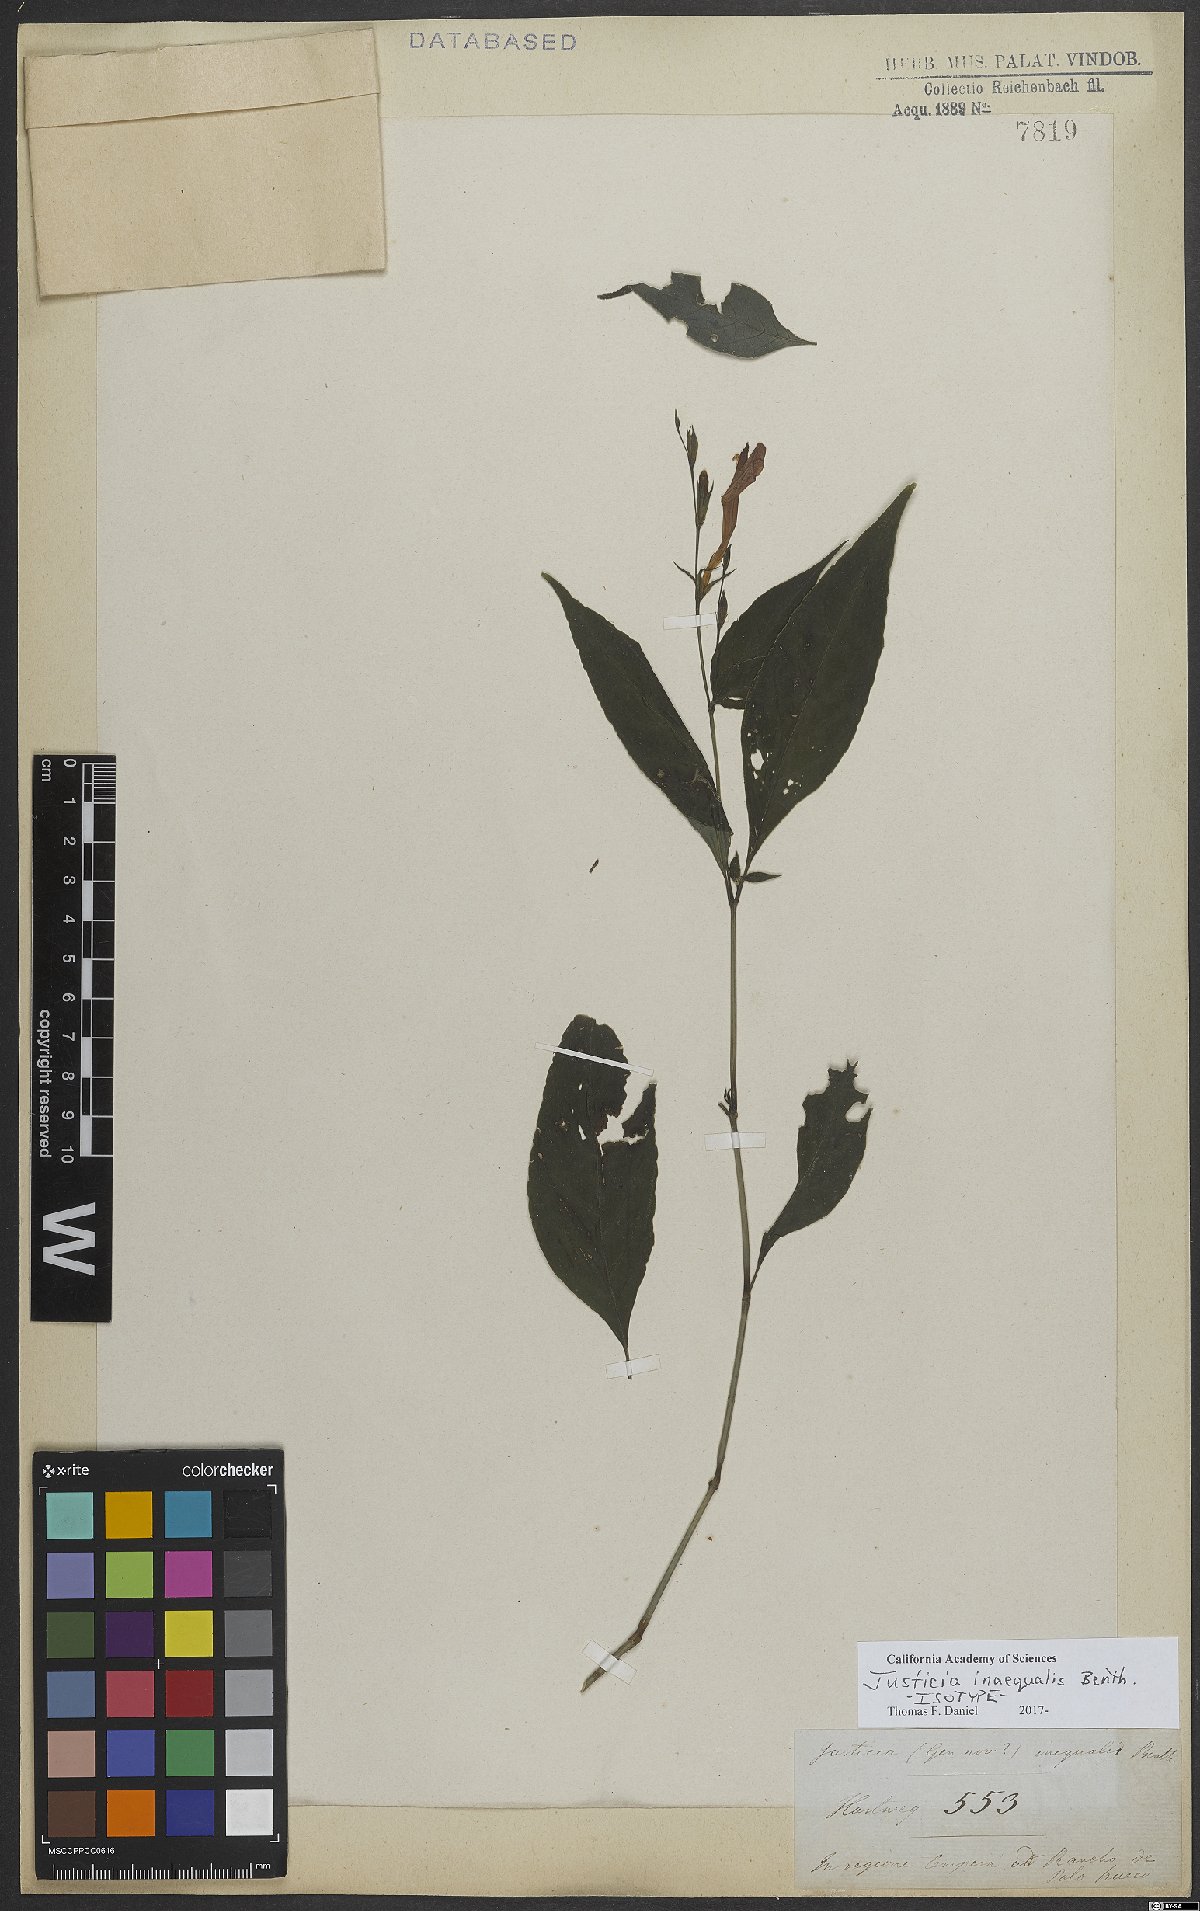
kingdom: Plantae
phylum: Tracheophyta
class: Magnoliopsida
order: Lamiales
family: Acanthaceae
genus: Dianthera
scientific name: Dianthera inaequalis
